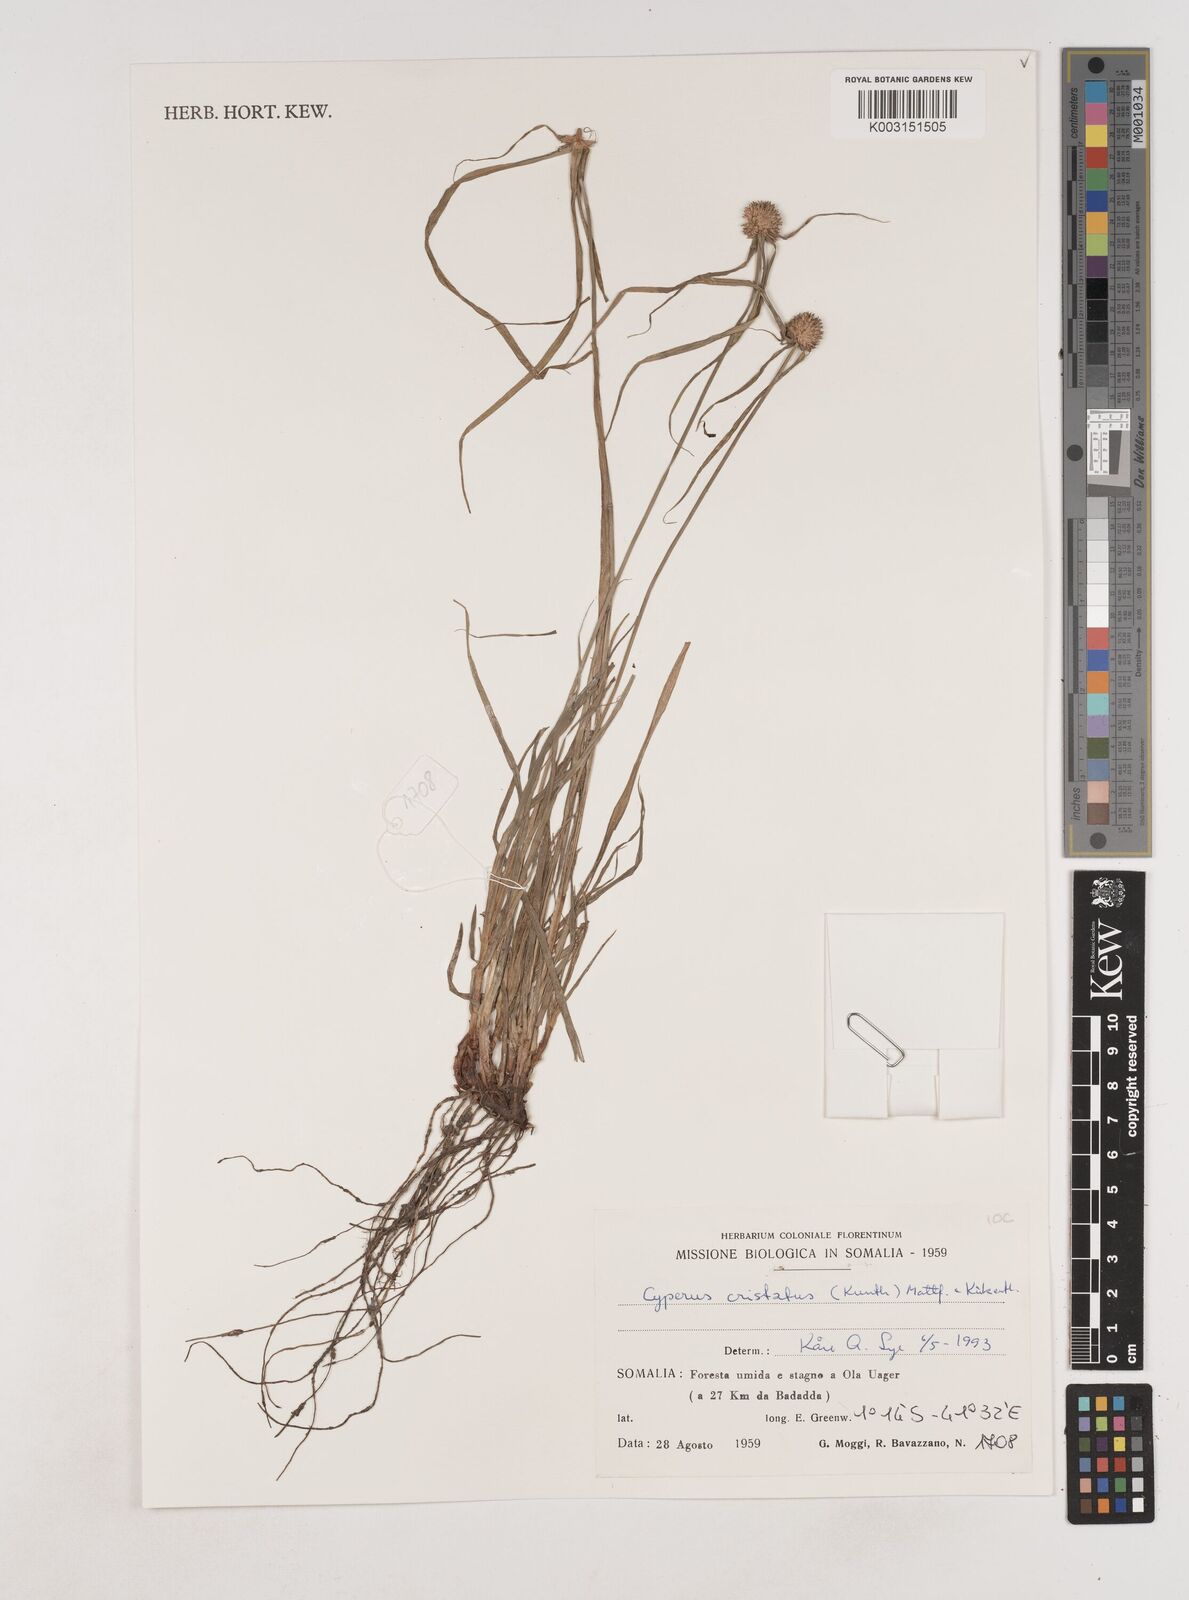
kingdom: Plantae
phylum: Tracheophyta
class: Liliopsida
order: Poales
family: Cyperaceae
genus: Cyperus
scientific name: Cyperus alatus
